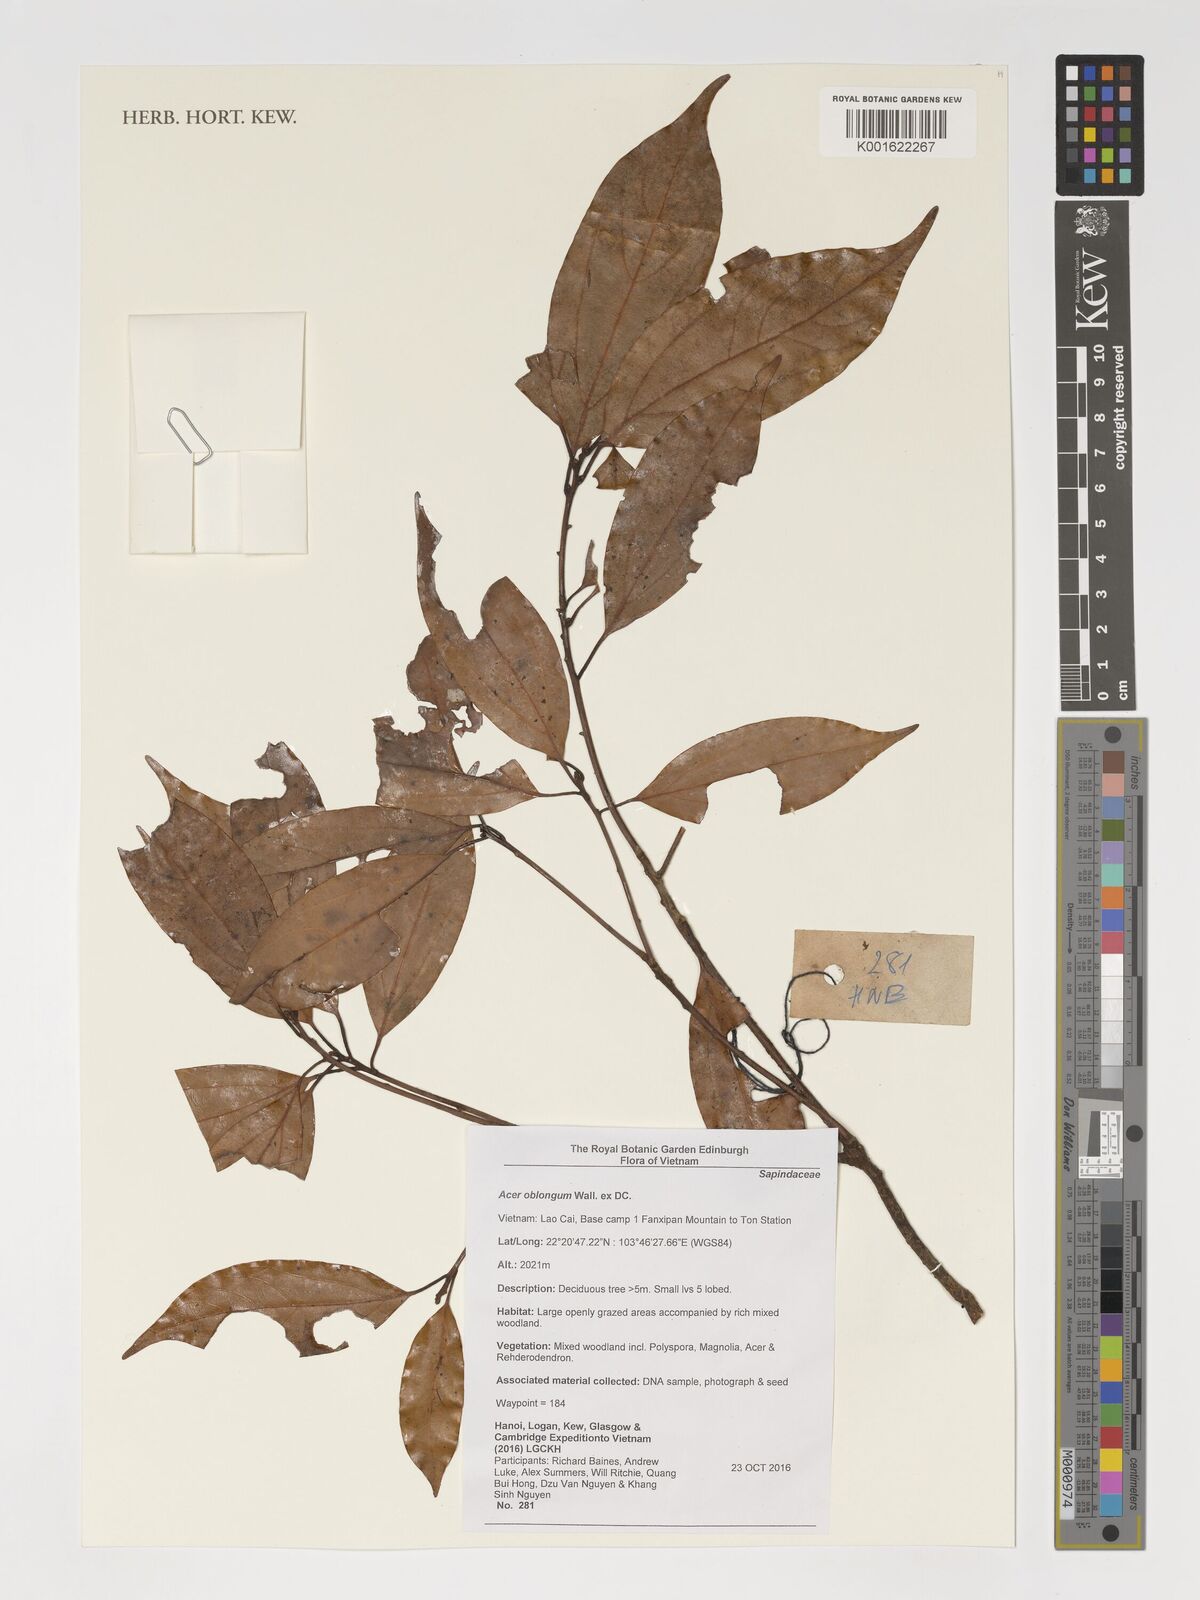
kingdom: Plantae
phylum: Tracheophyta
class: Magnoliopsida
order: Sapindales
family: Sapindaceae
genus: Acer
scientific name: Acer oblongum
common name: Himalayan maple
